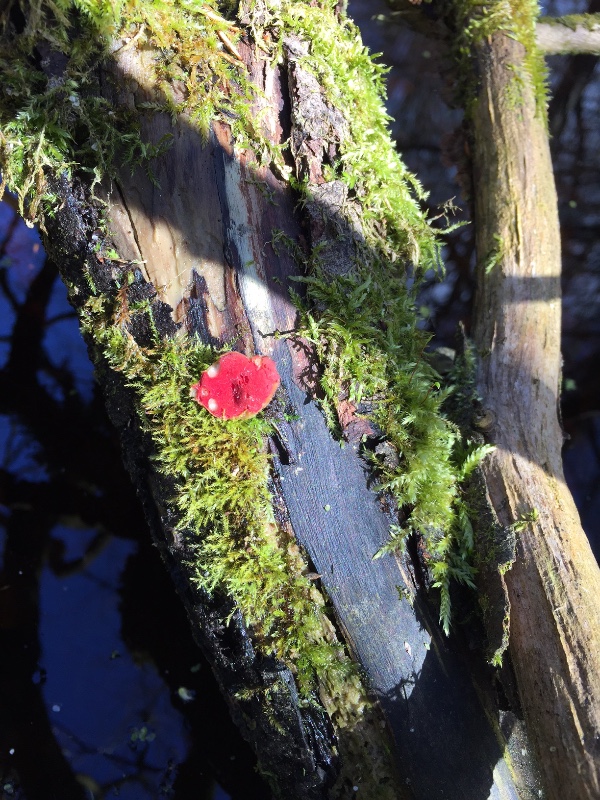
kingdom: Fungi
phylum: Ascomycota
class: Pezizomycetes
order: Pezizales
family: Sarcoscyphaceae
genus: Sarcoscypha
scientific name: Sarcoscypha austriaca
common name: krølhåret pragtbæger
